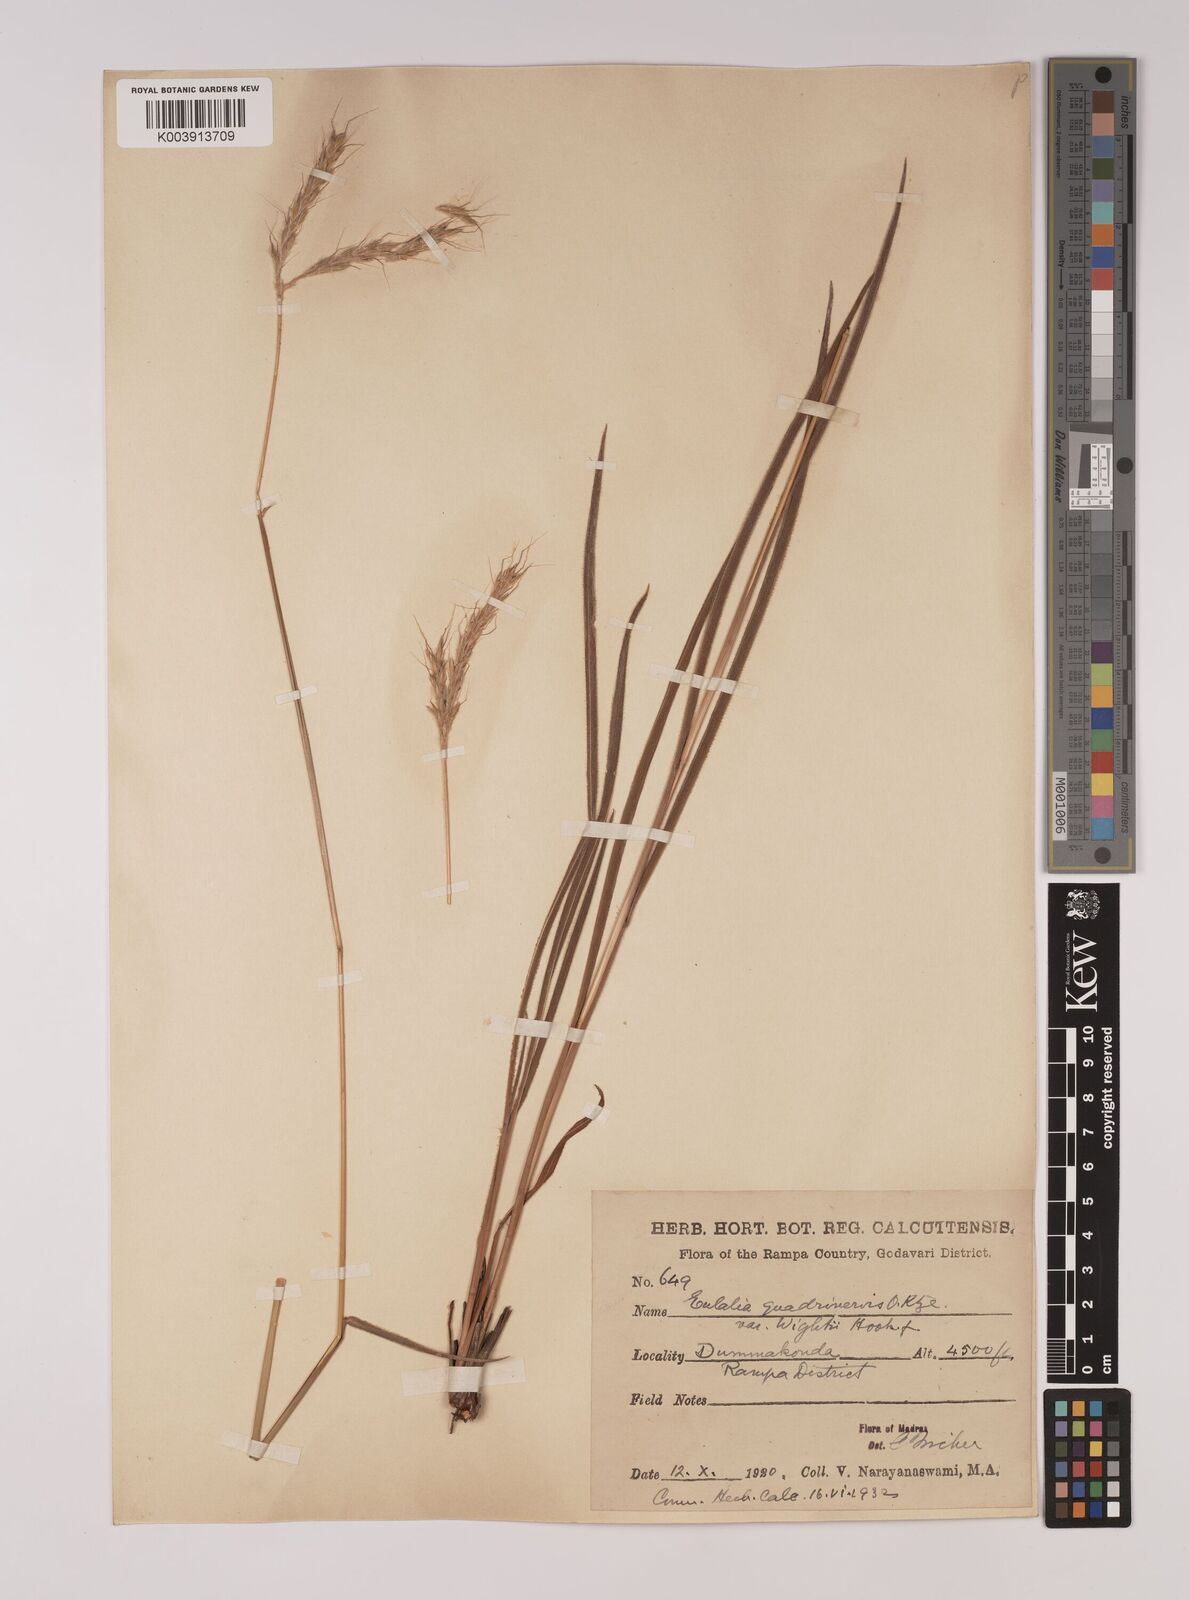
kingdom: Plantae
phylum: Tracheophyta
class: Liliopsida
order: Poales
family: Poaceae
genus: Eulalia
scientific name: Eulalia villosa
